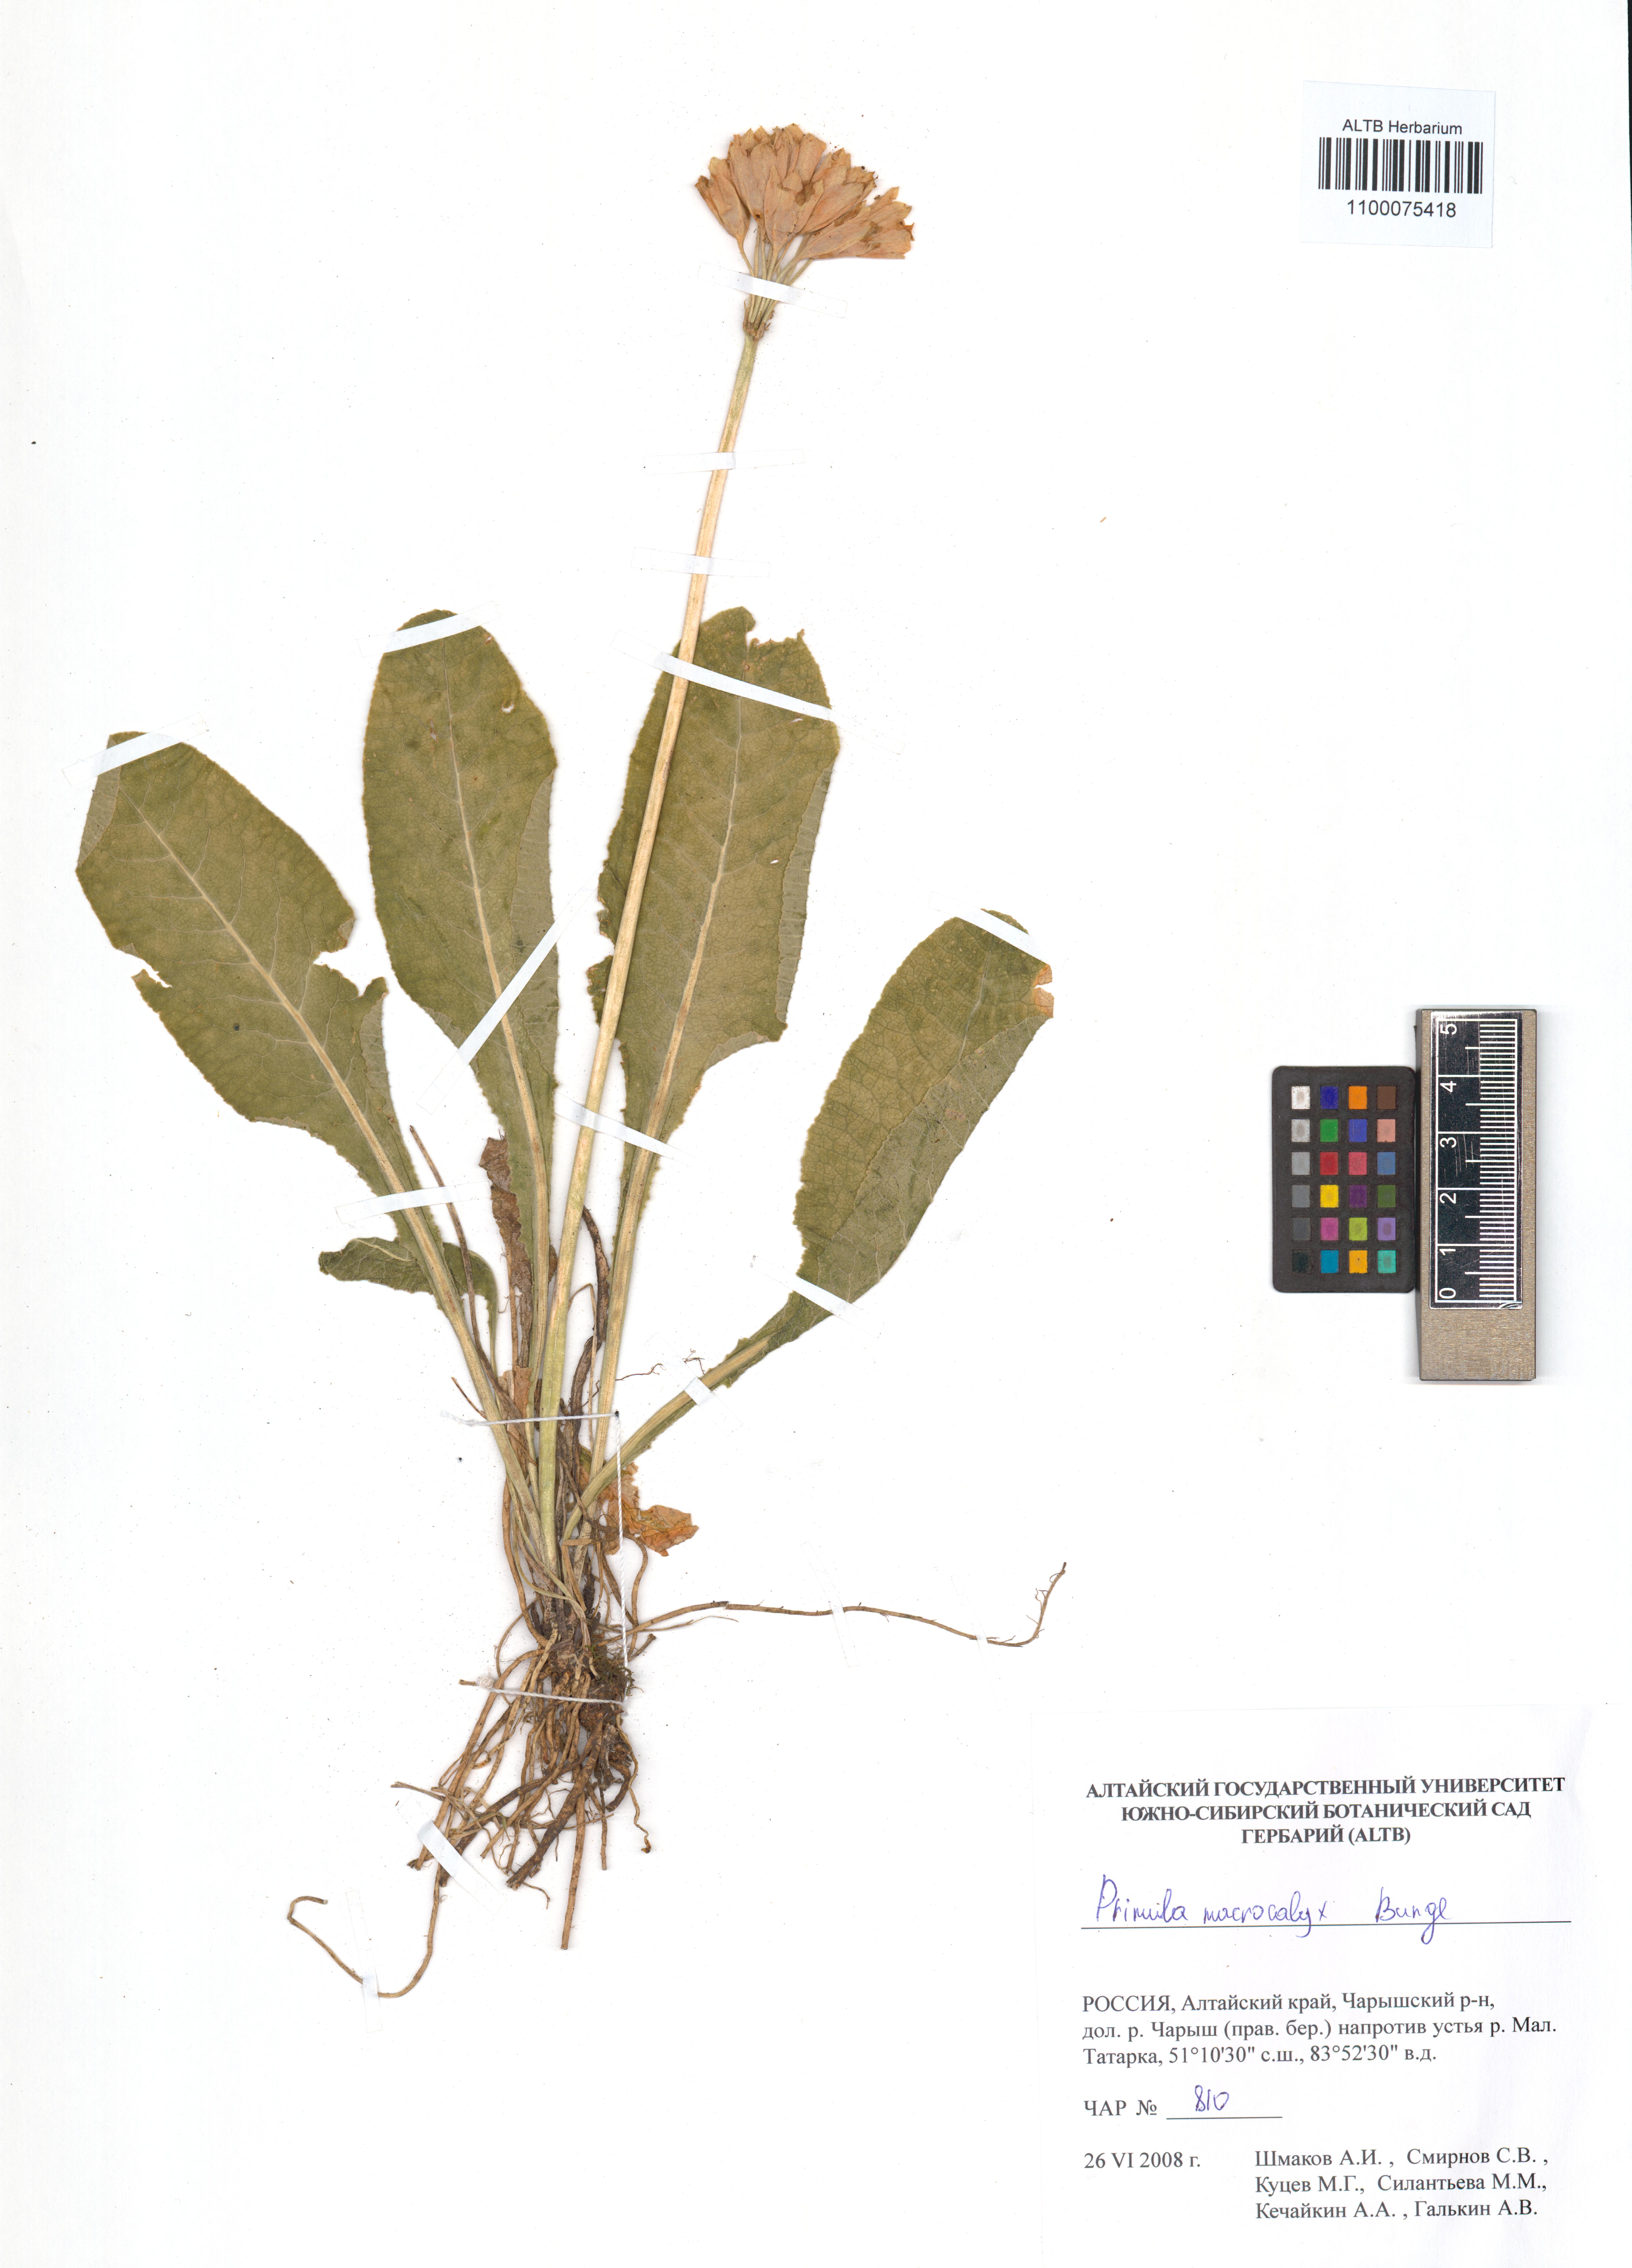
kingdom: Plantae
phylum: Tracheophyta
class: Magnoliopsida
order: Ericales
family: Primulaceae
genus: Primula
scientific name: Primula veris
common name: Cowslip
